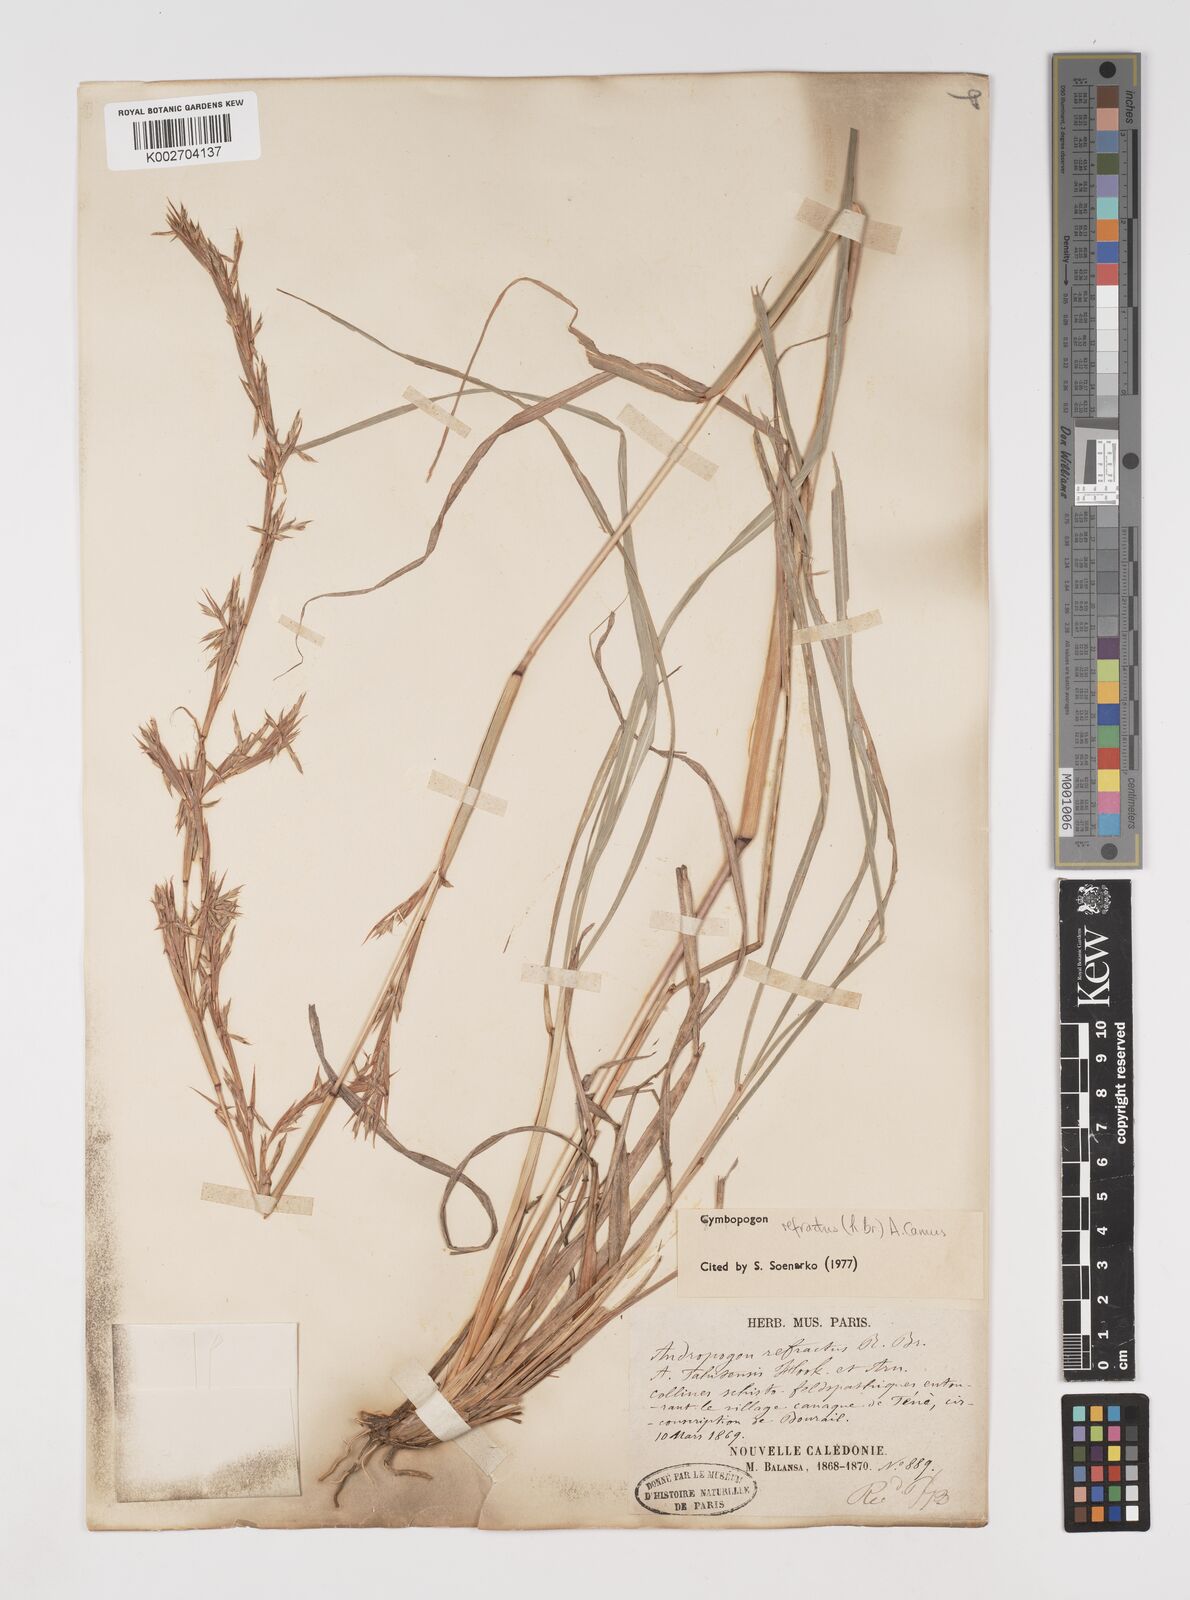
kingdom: Plantae
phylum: Tracheophyta
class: Liliopsida
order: Poales
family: Poaceae
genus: Cymbopogon
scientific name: Cymbopogon refractus
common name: Barbwire grass
